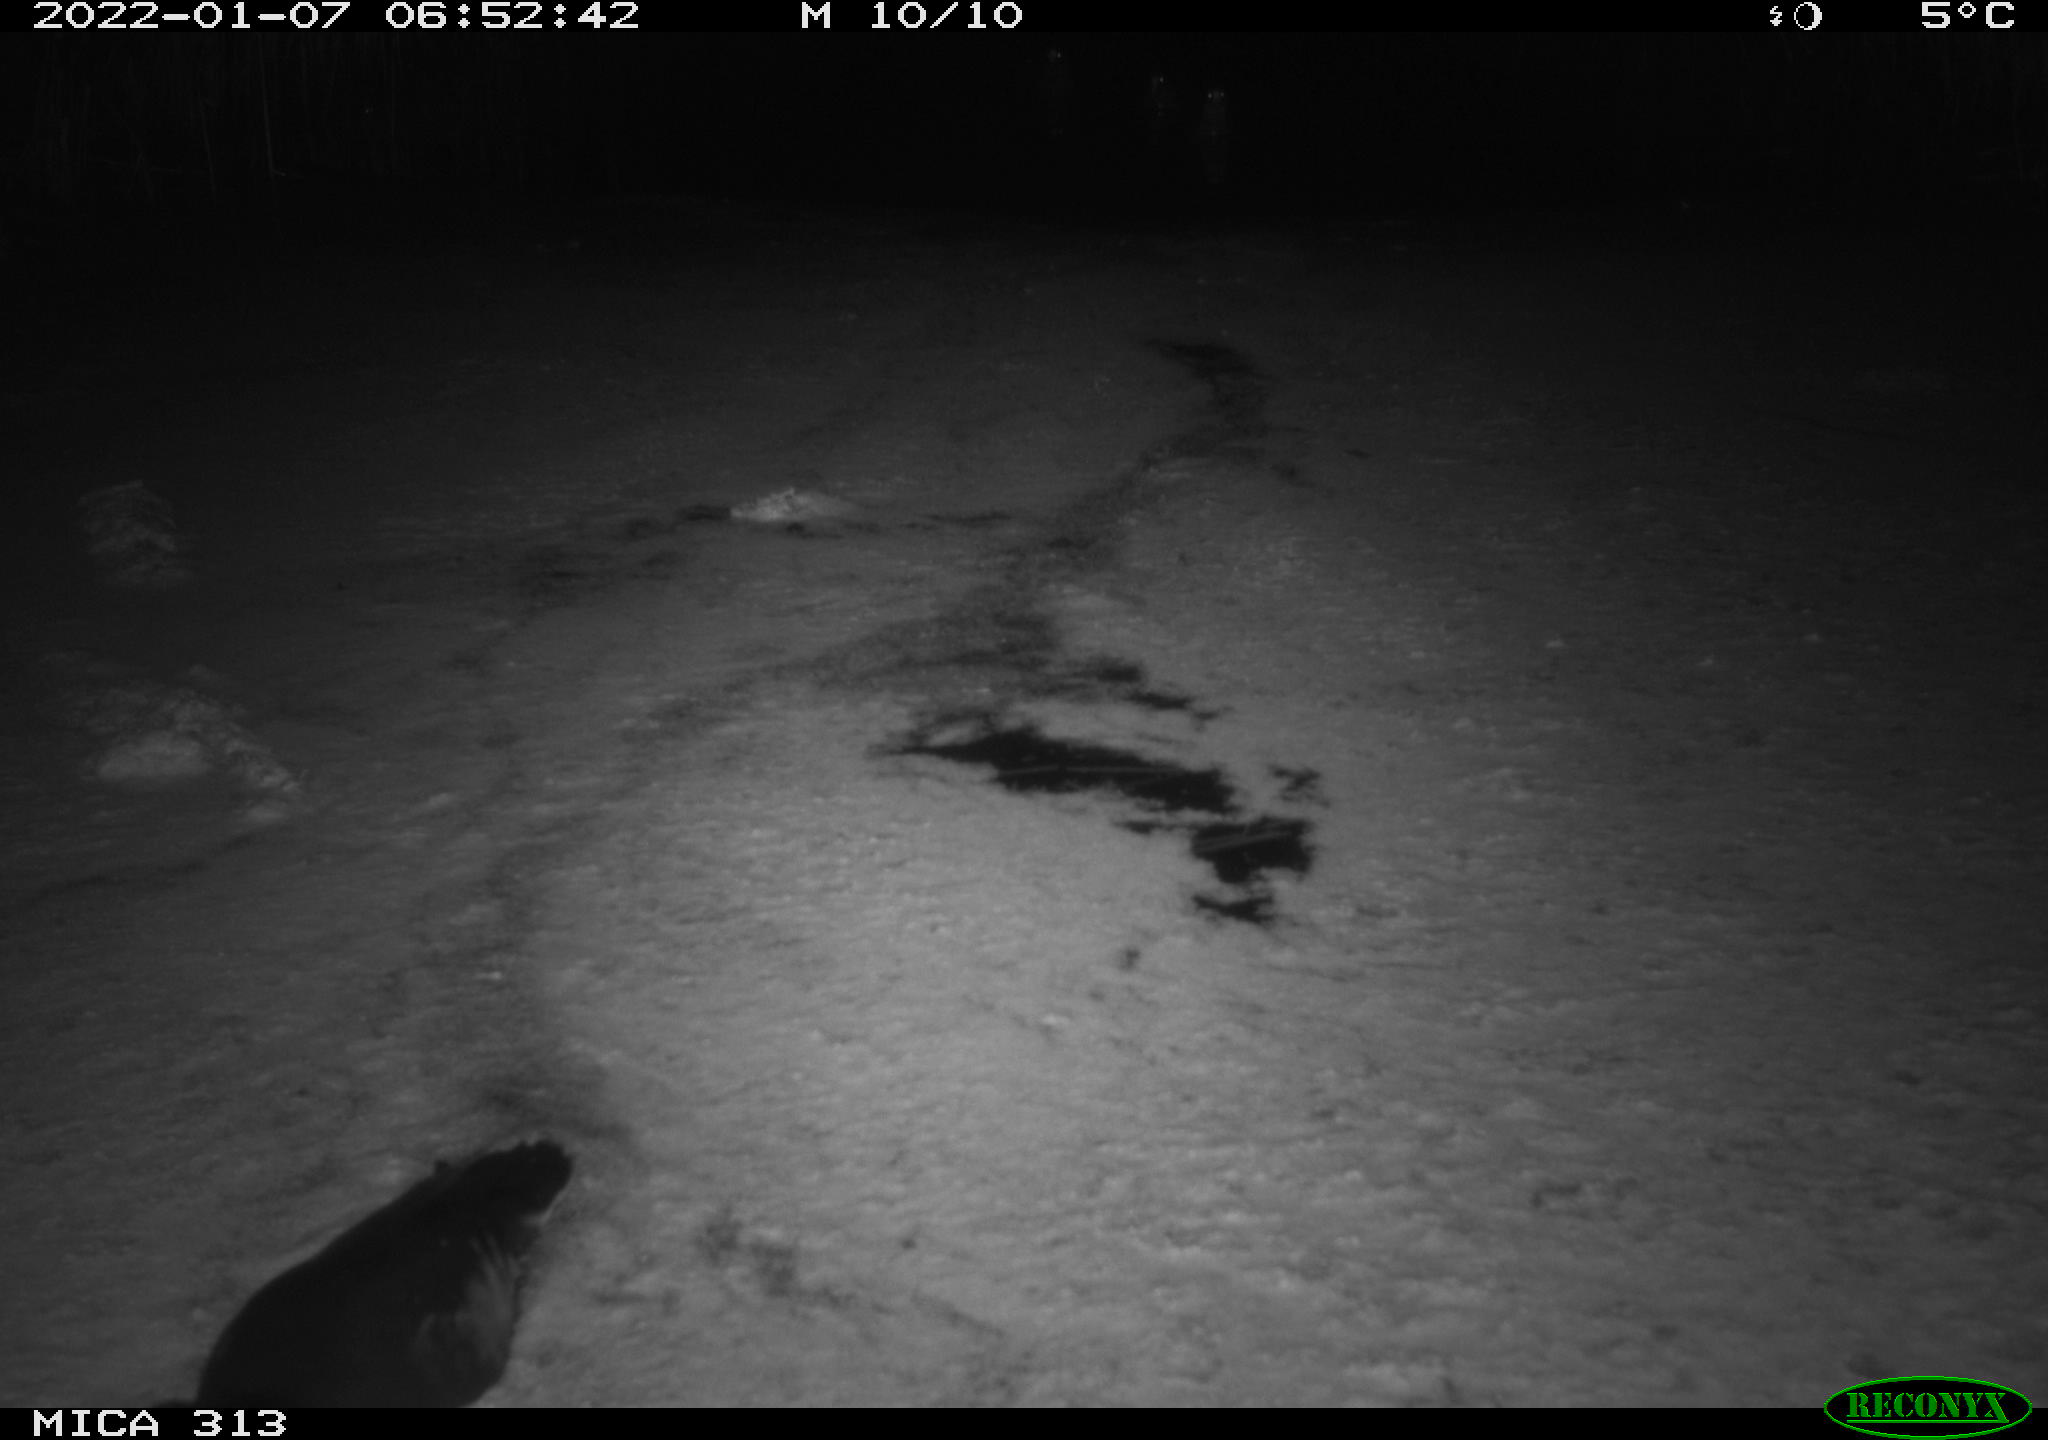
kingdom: Animalia
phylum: Chordata
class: Aves
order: Gruiformes
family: Rallidae
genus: Fulica
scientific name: Fulica atra
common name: Eurasian coot
